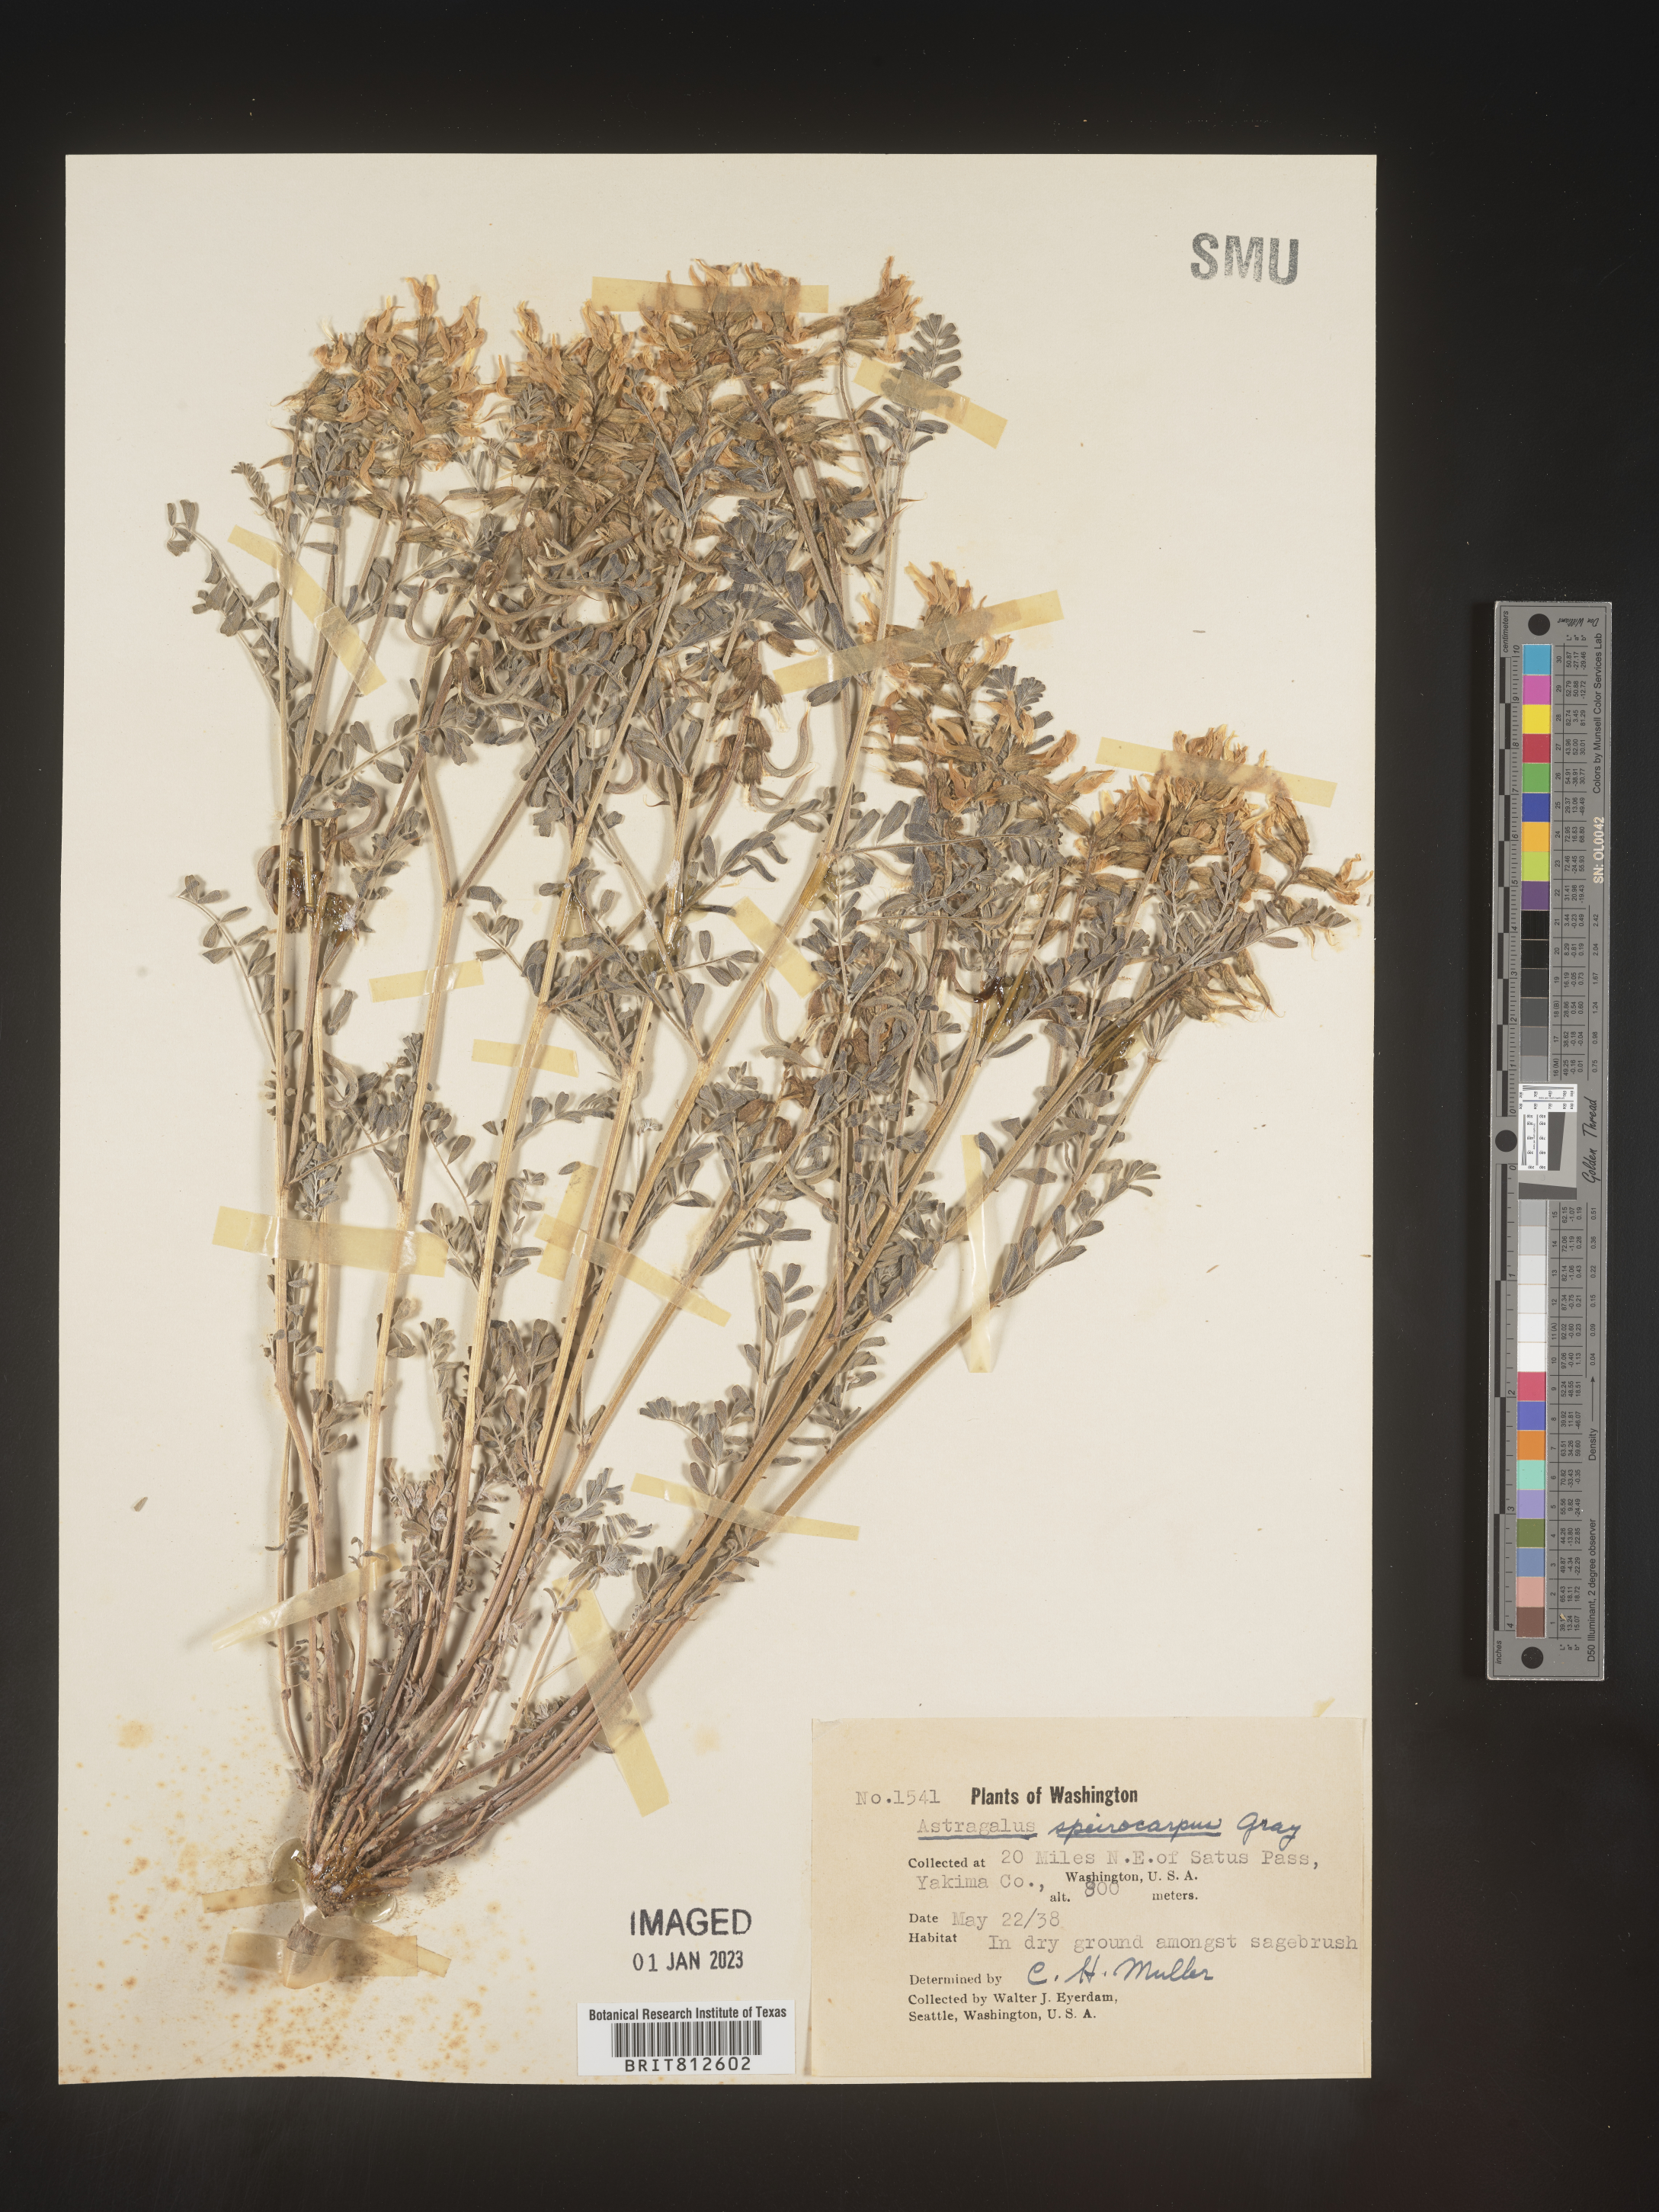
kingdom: Plantae
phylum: Tracheophyta
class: Magnoliopsida
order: Fabales
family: Fabaceae
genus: Astragalus
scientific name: Astragalus
